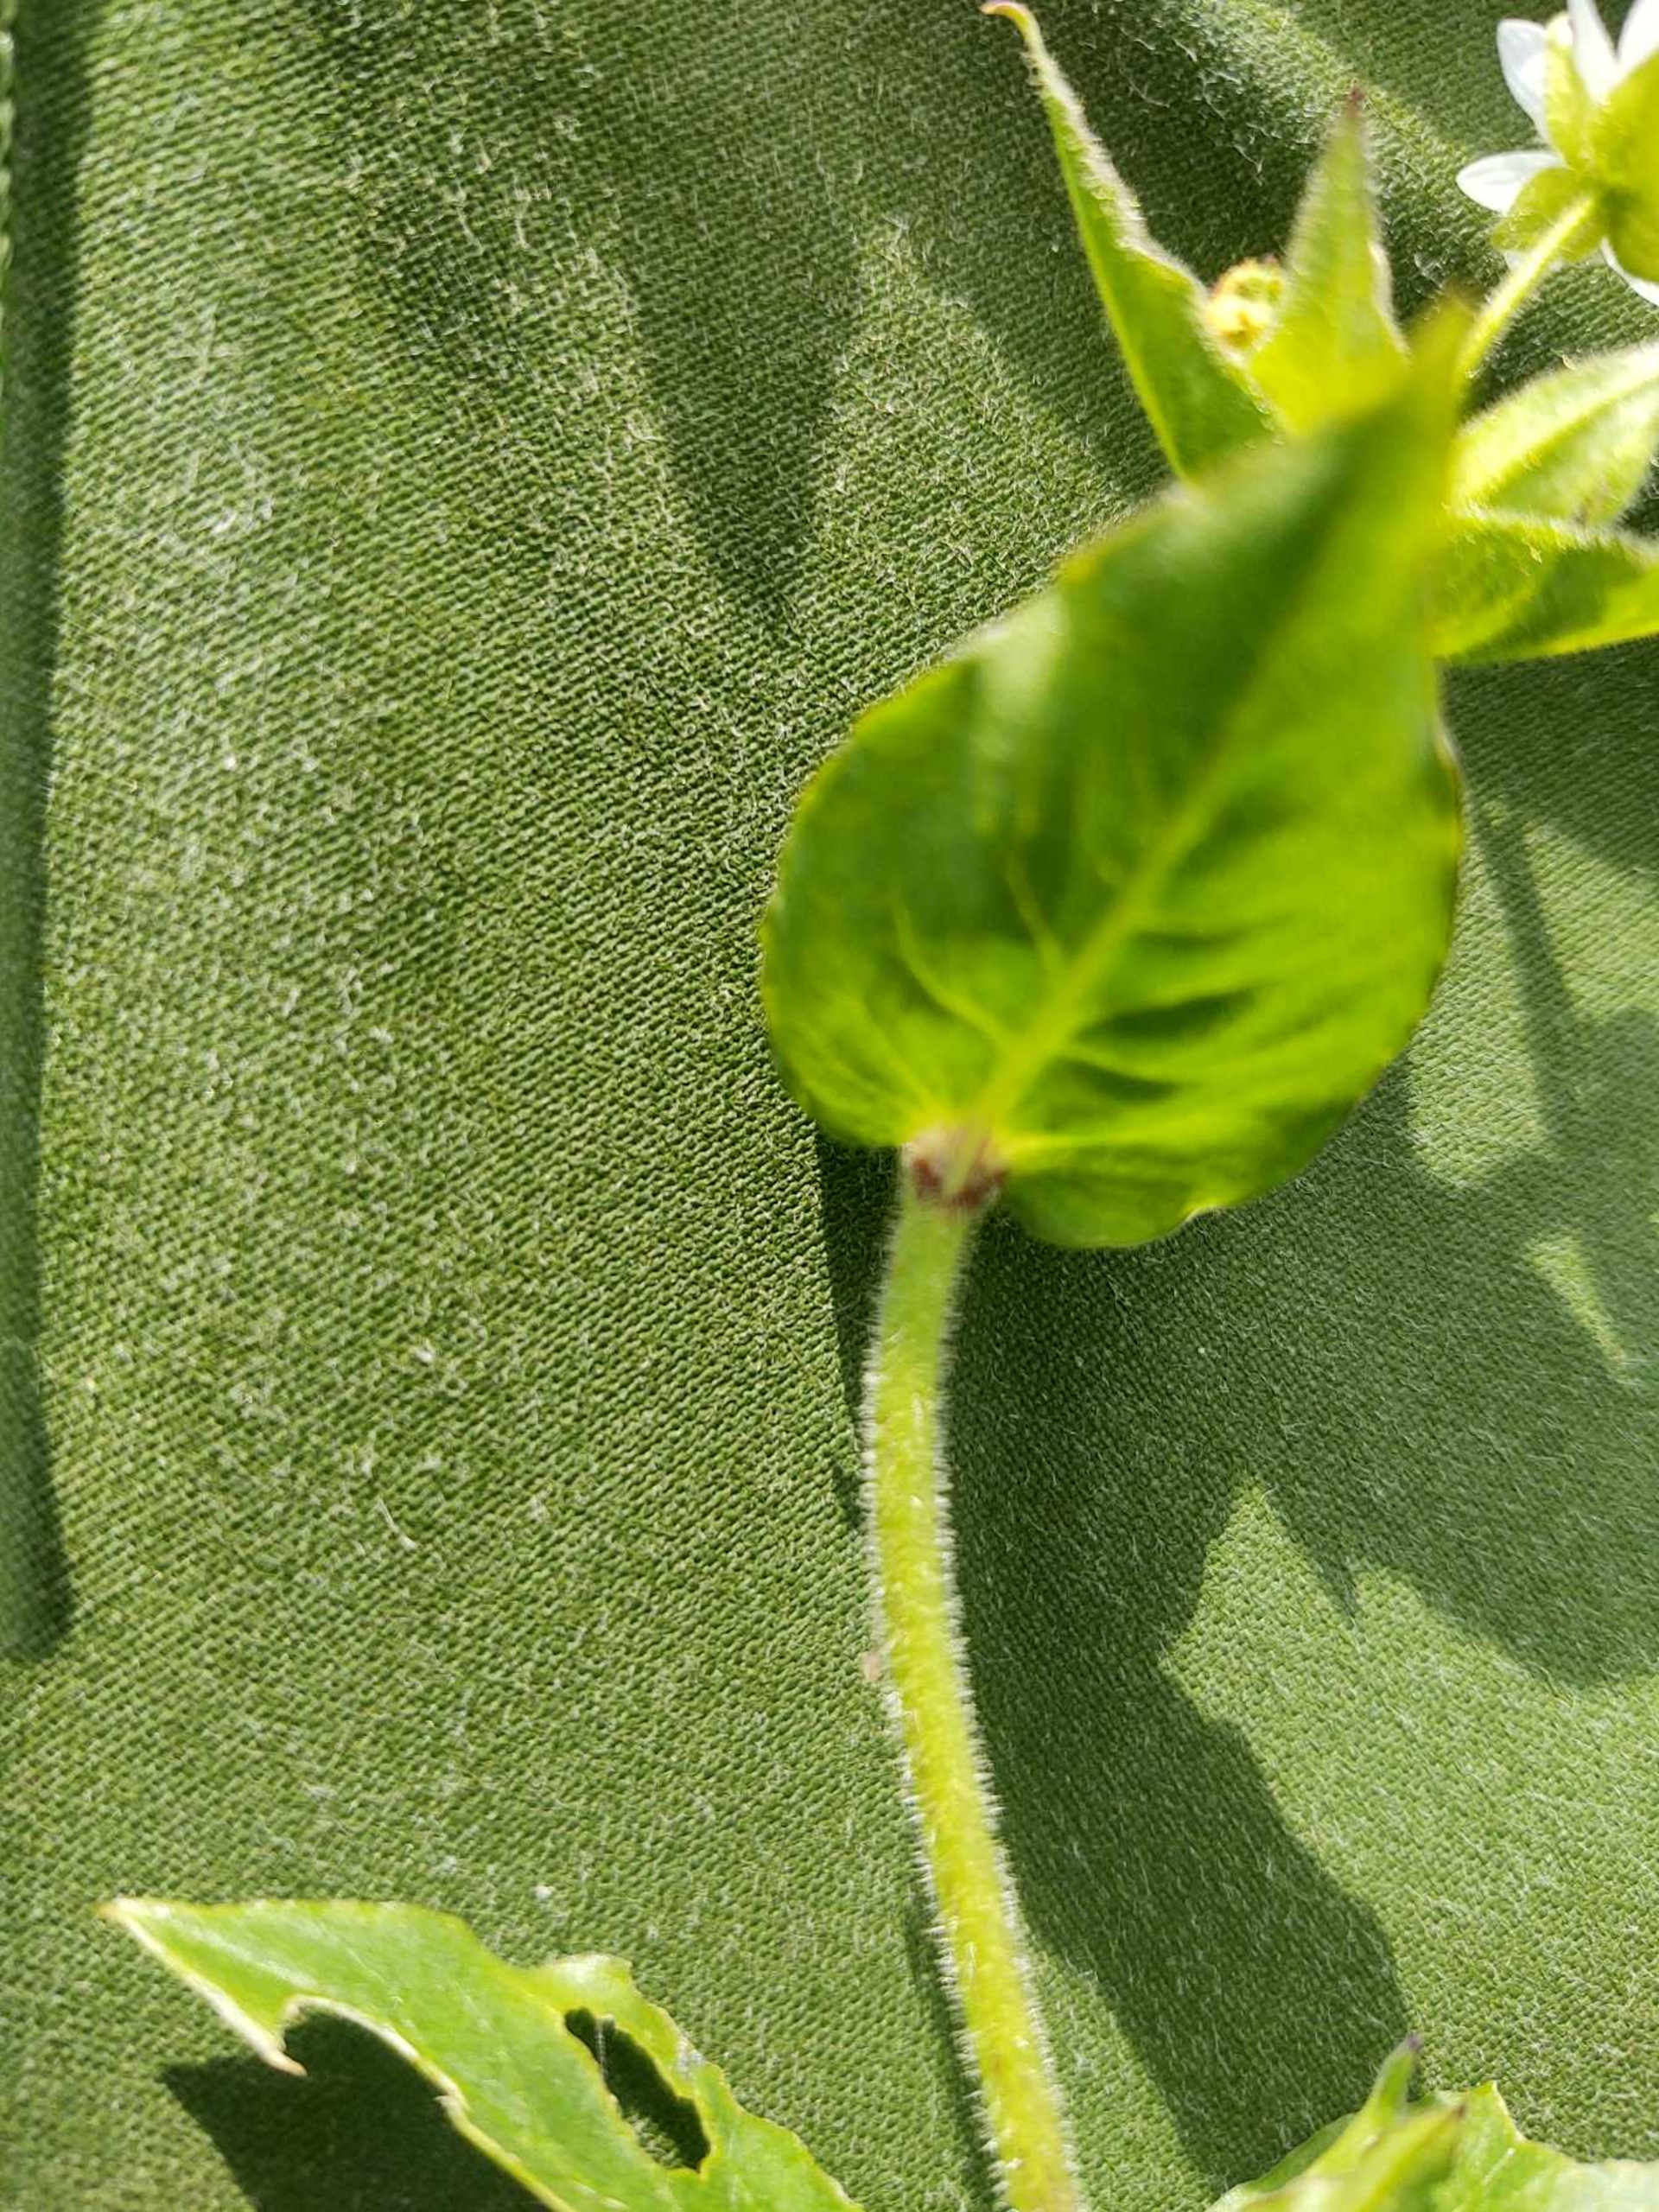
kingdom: Plantae
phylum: Tracheophyta
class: Magnoliopsida
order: Caryophyllales
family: Caryophyllaceae
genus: Stellaria
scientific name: Stellaria aquatica
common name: Kløvkrone
